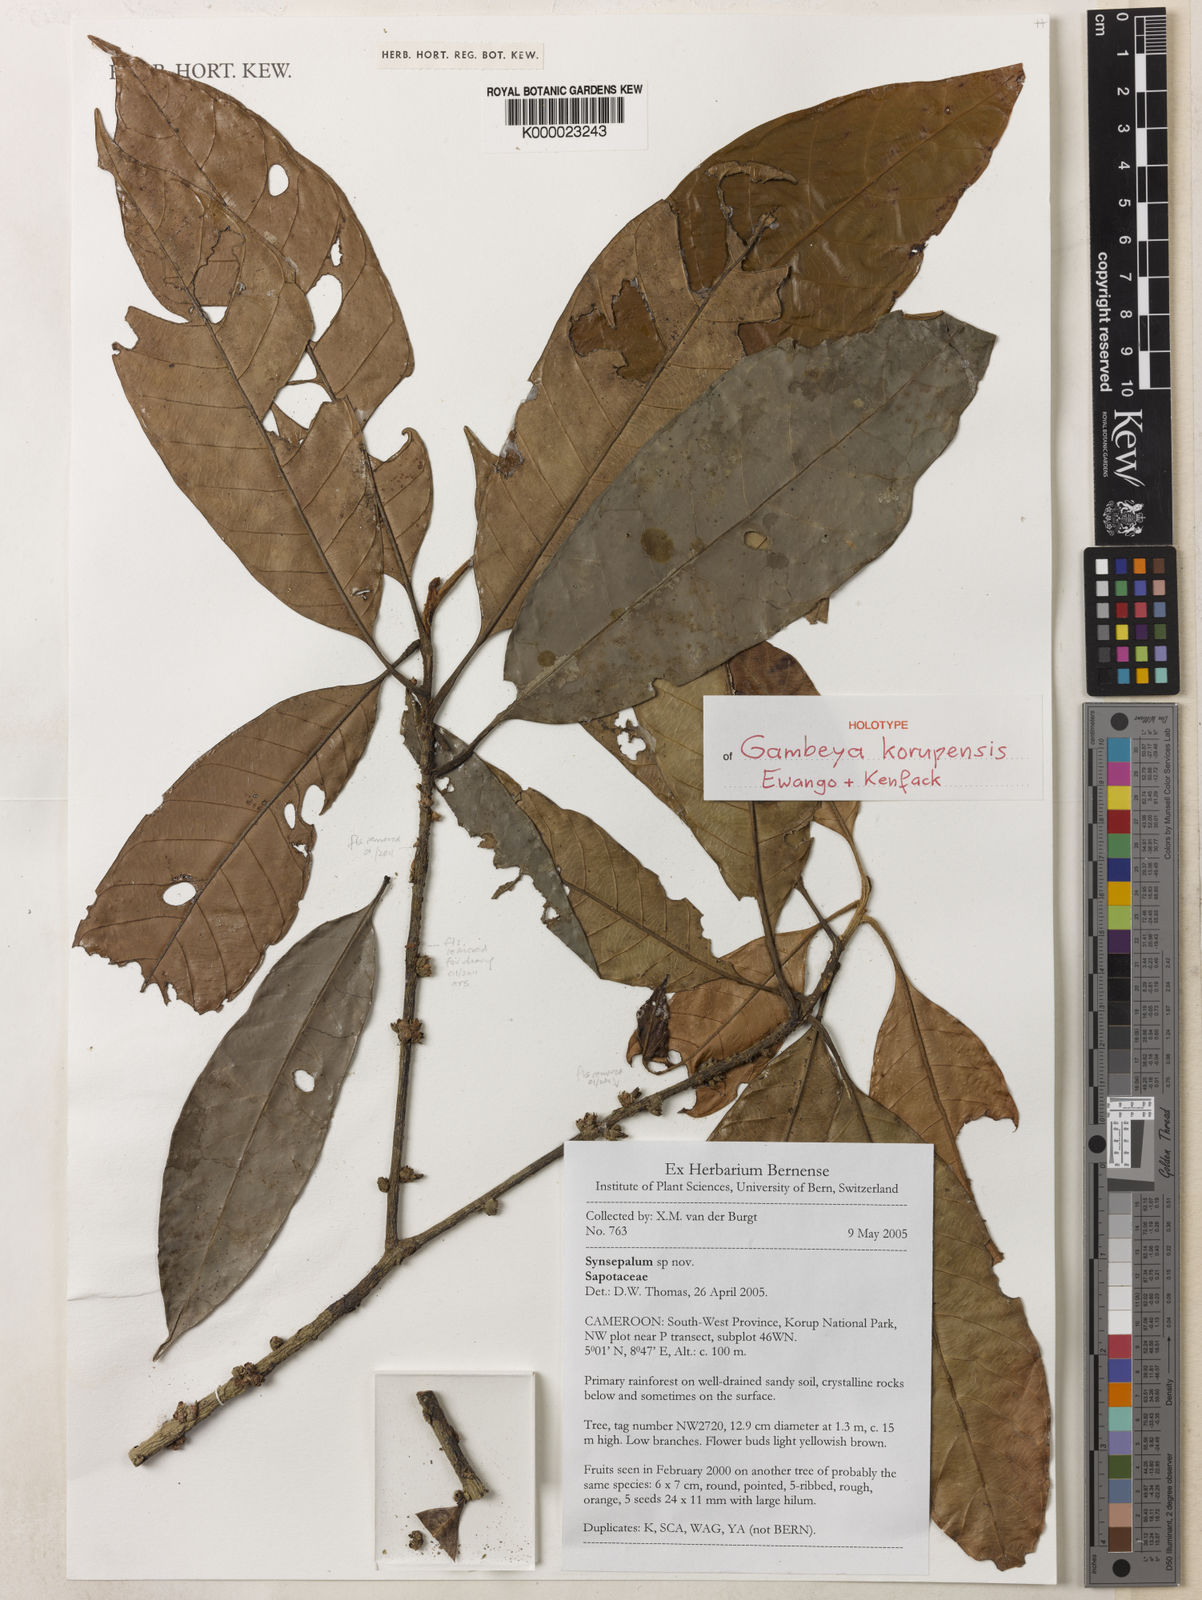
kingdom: Plantae
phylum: Tracheophyta
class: Magnoliopsida
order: Ericales
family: Sapotaceae
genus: Gambeya
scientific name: Gambeya korupensis
